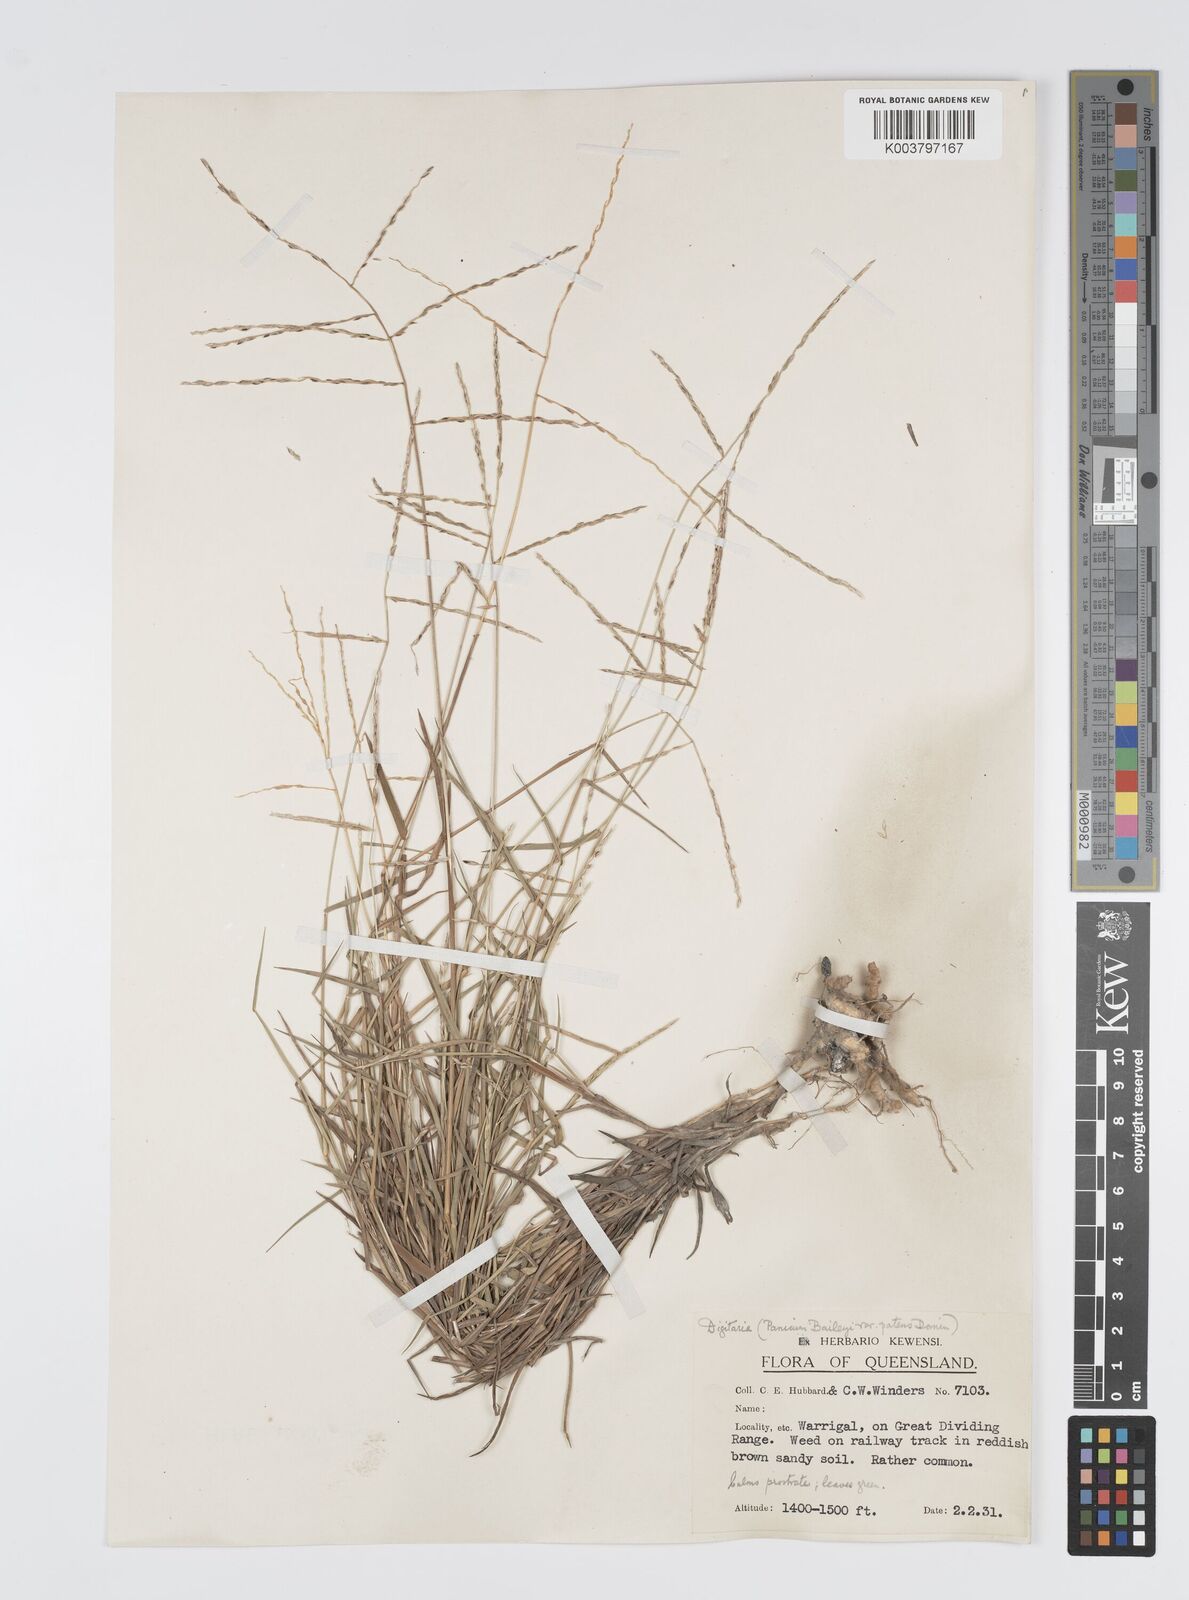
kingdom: Plantae
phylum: Tracheophyta
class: Liliopsida
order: Poales
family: Poaceae
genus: Digitaria
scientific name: Digitaria spec
